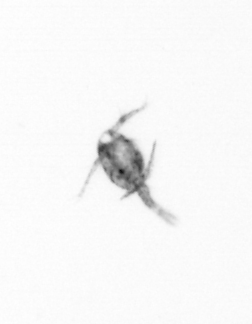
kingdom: Animalia
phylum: Arthropoda
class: Copepoda
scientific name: Copepoda
